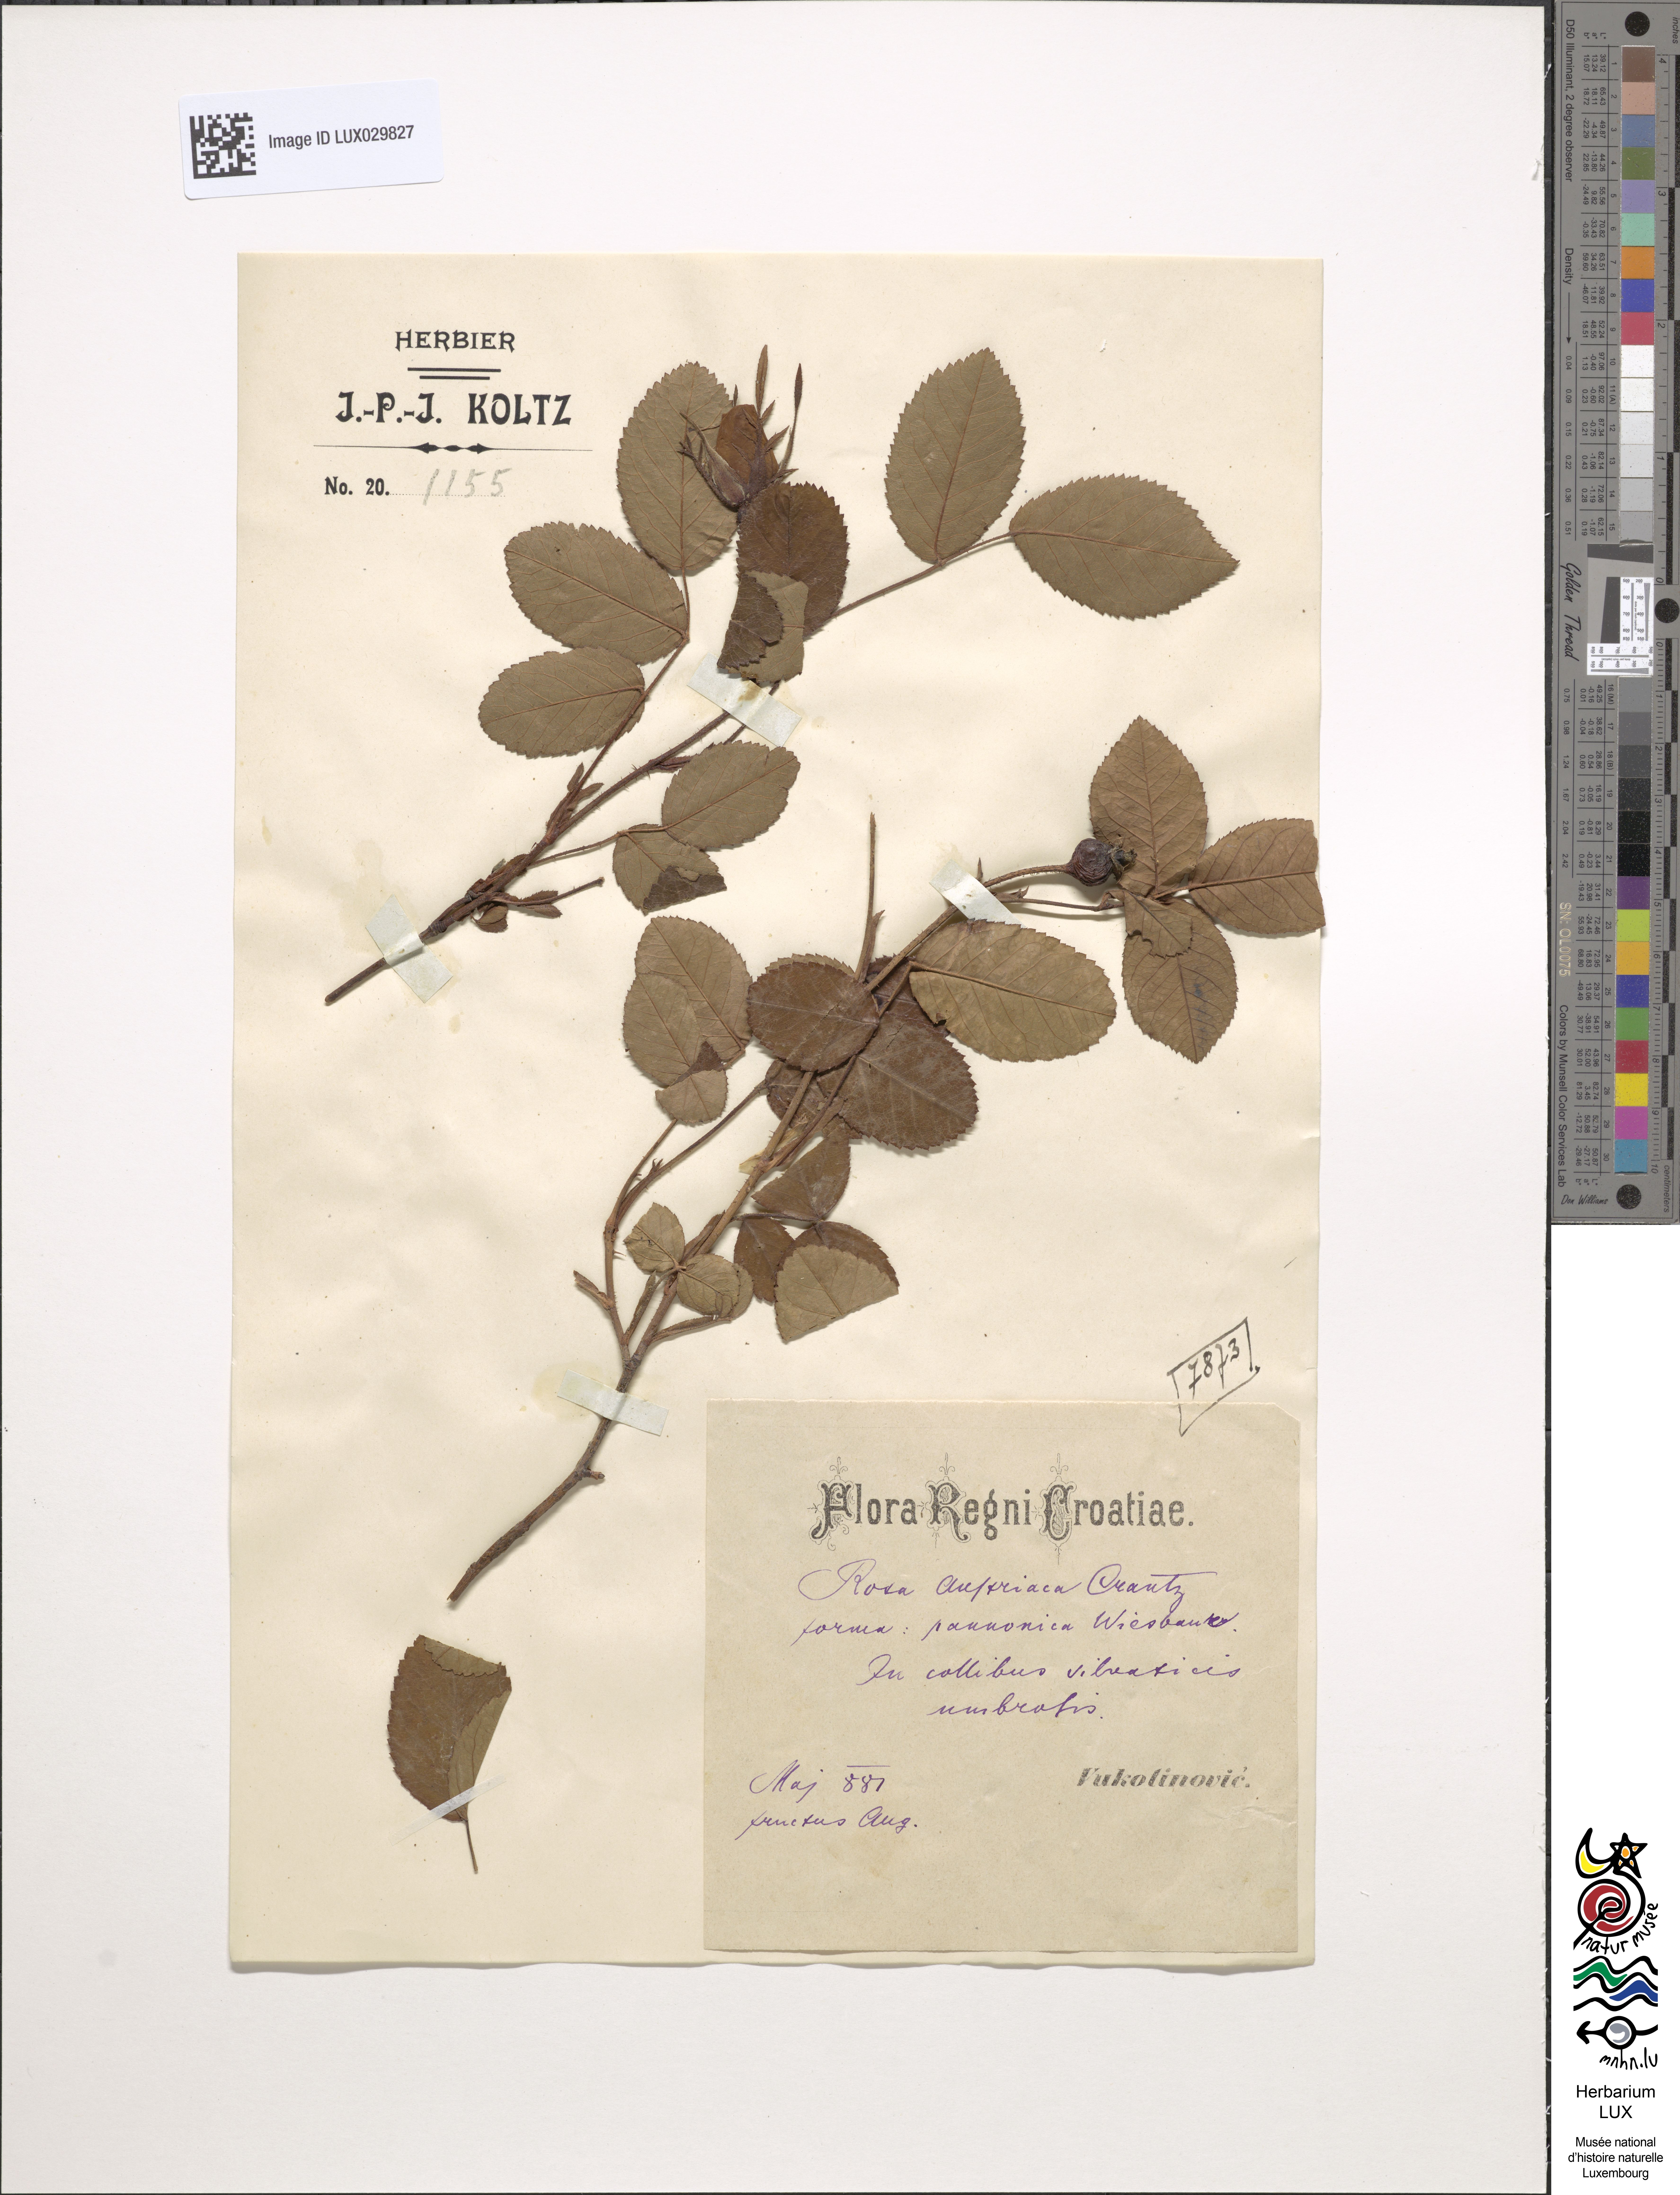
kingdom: Plantae
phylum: Tracheophyta
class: Magnoliopsida
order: Rosales
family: Rosaceae
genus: Rosa
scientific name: Rosa gallica
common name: French rose
